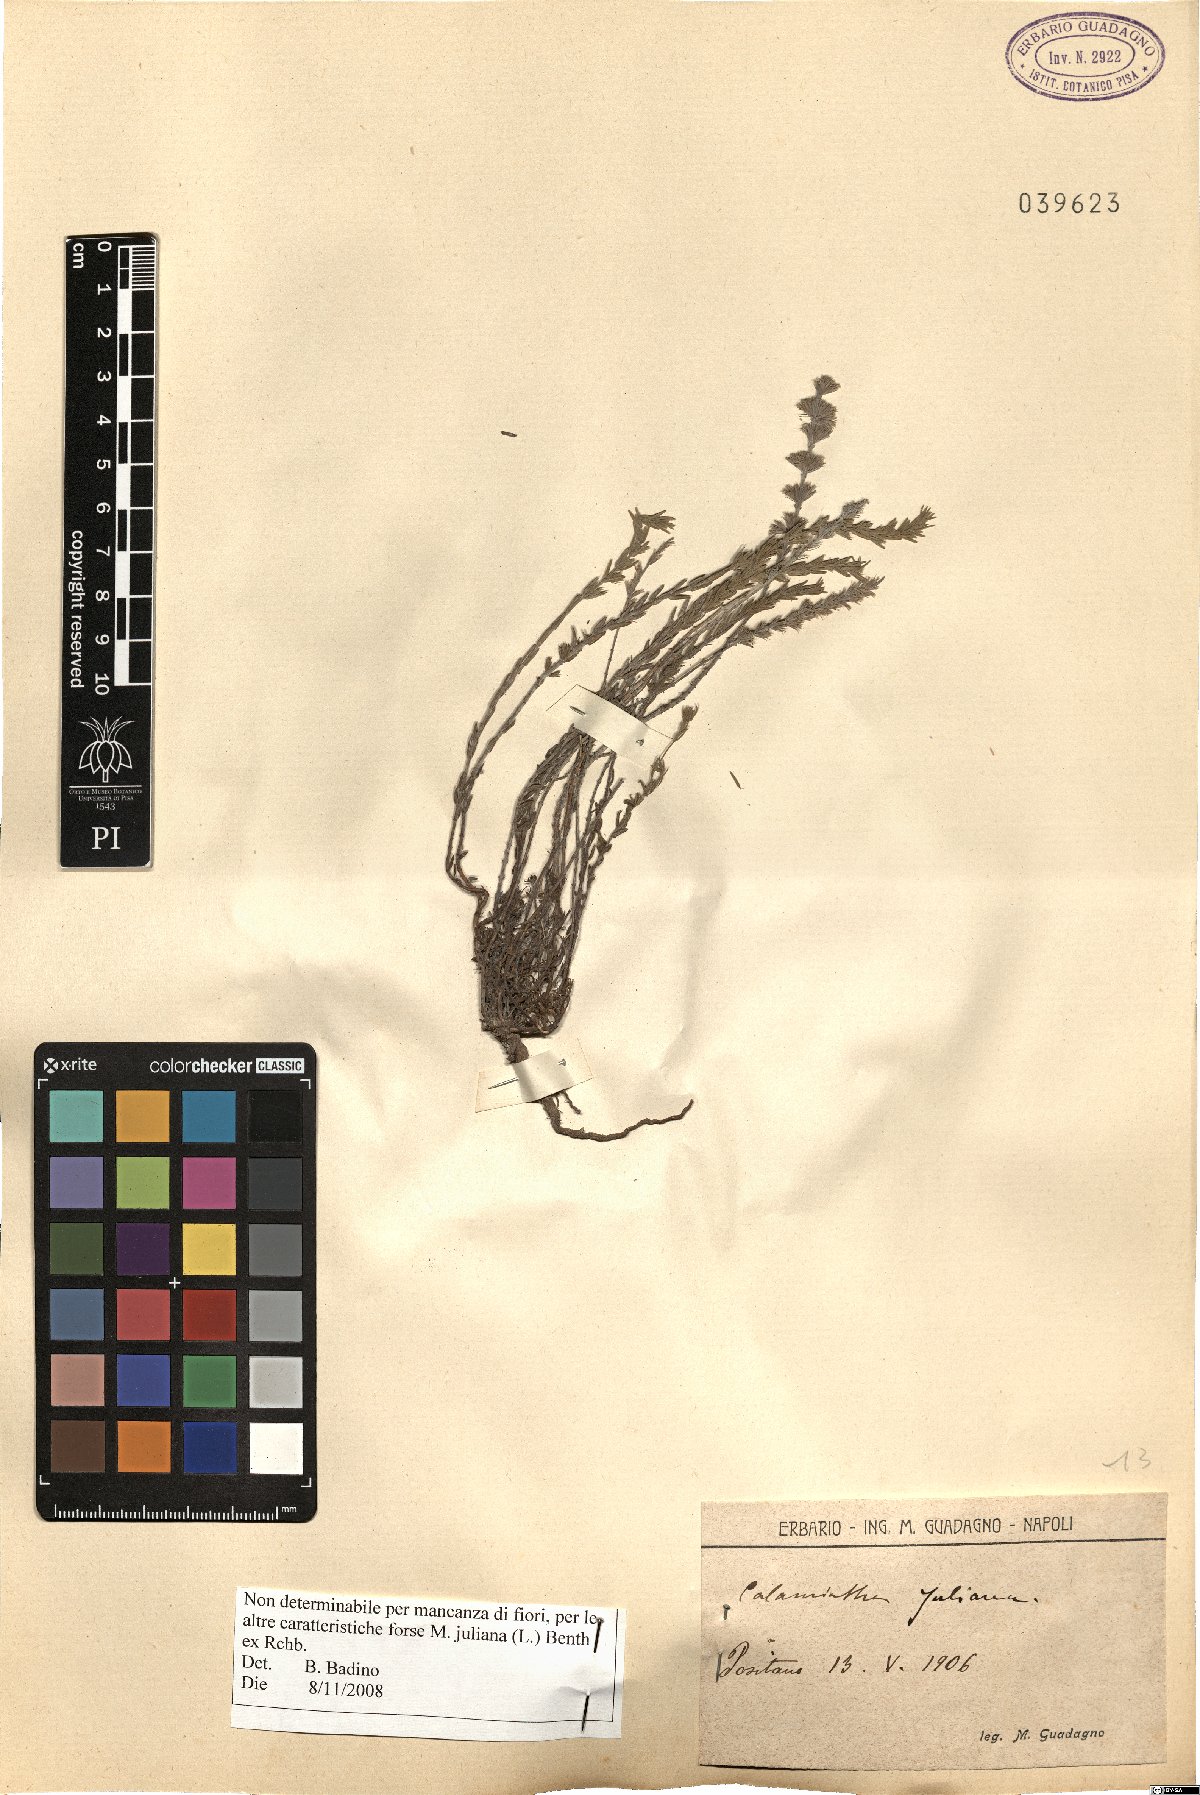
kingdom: Plantae
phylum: Tracheophyta
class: Magnoliopsida
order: Lamiales
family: Lamiaceae
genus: Micromeria
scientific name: Micromeria juliana
